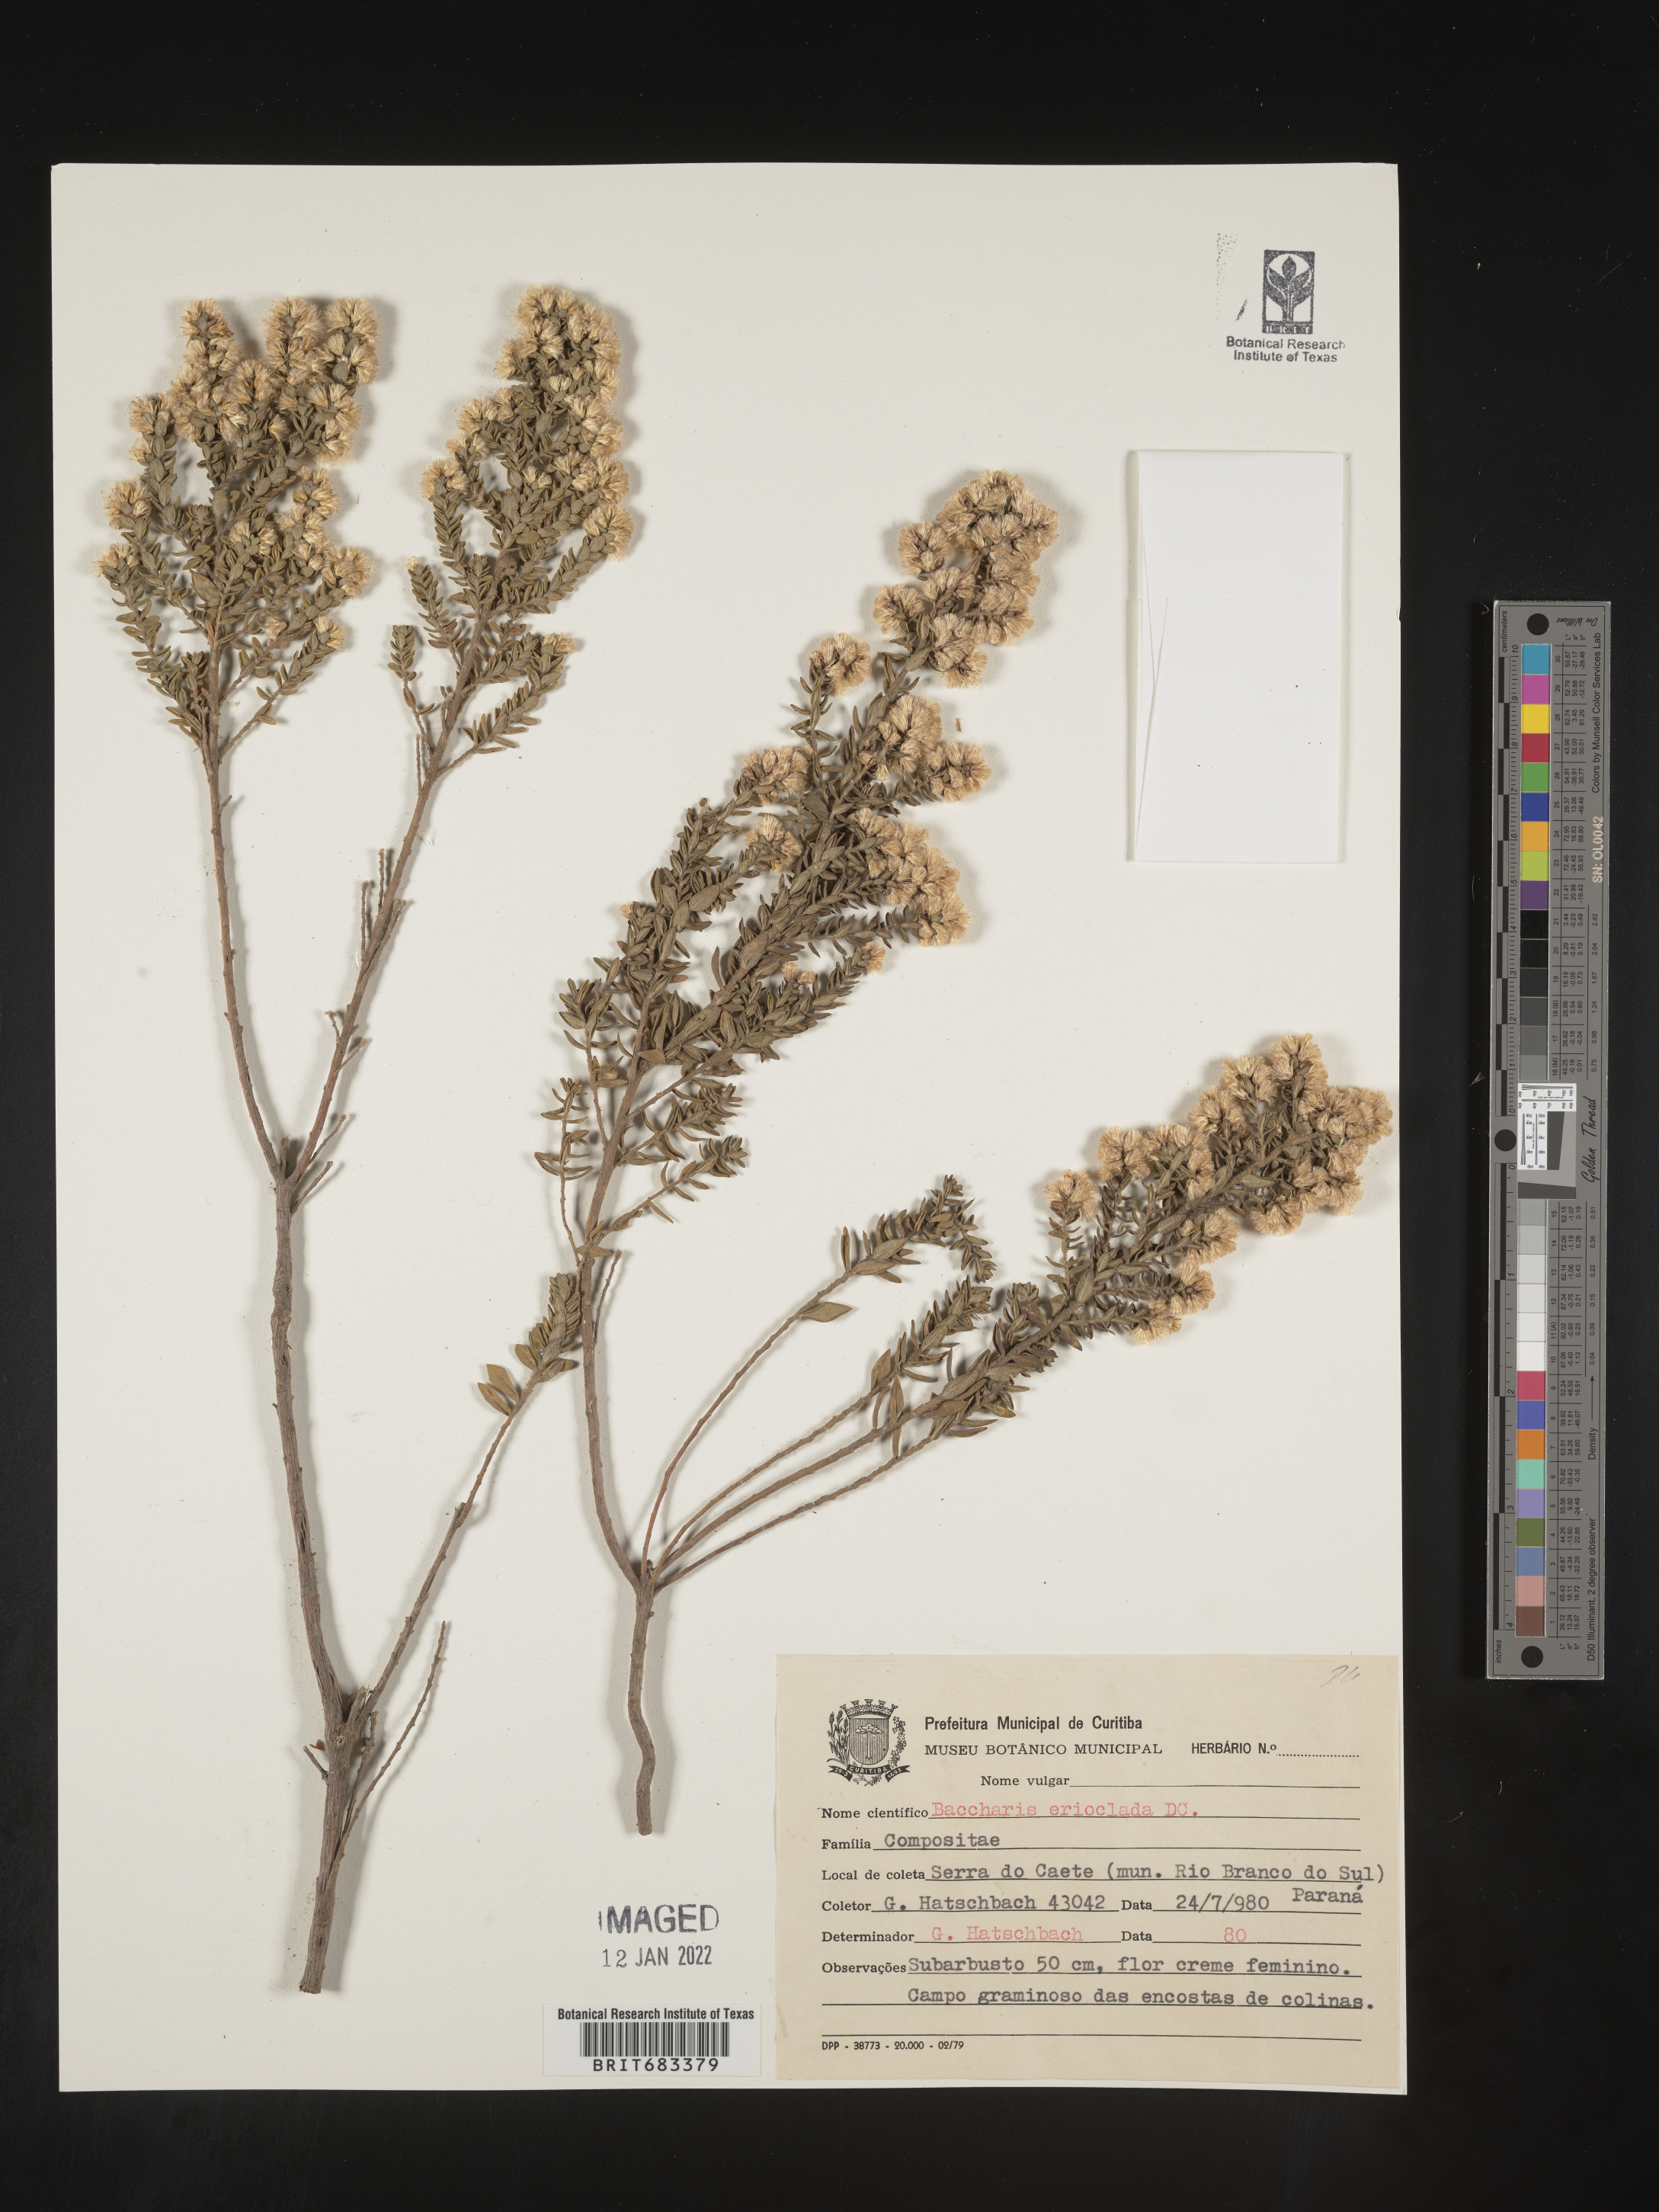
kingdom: Plantae
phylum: Tracheophyta
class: Magnoliopsida
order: Asterales
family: Asteraceae
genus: Baccharis
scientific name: Baccharis
